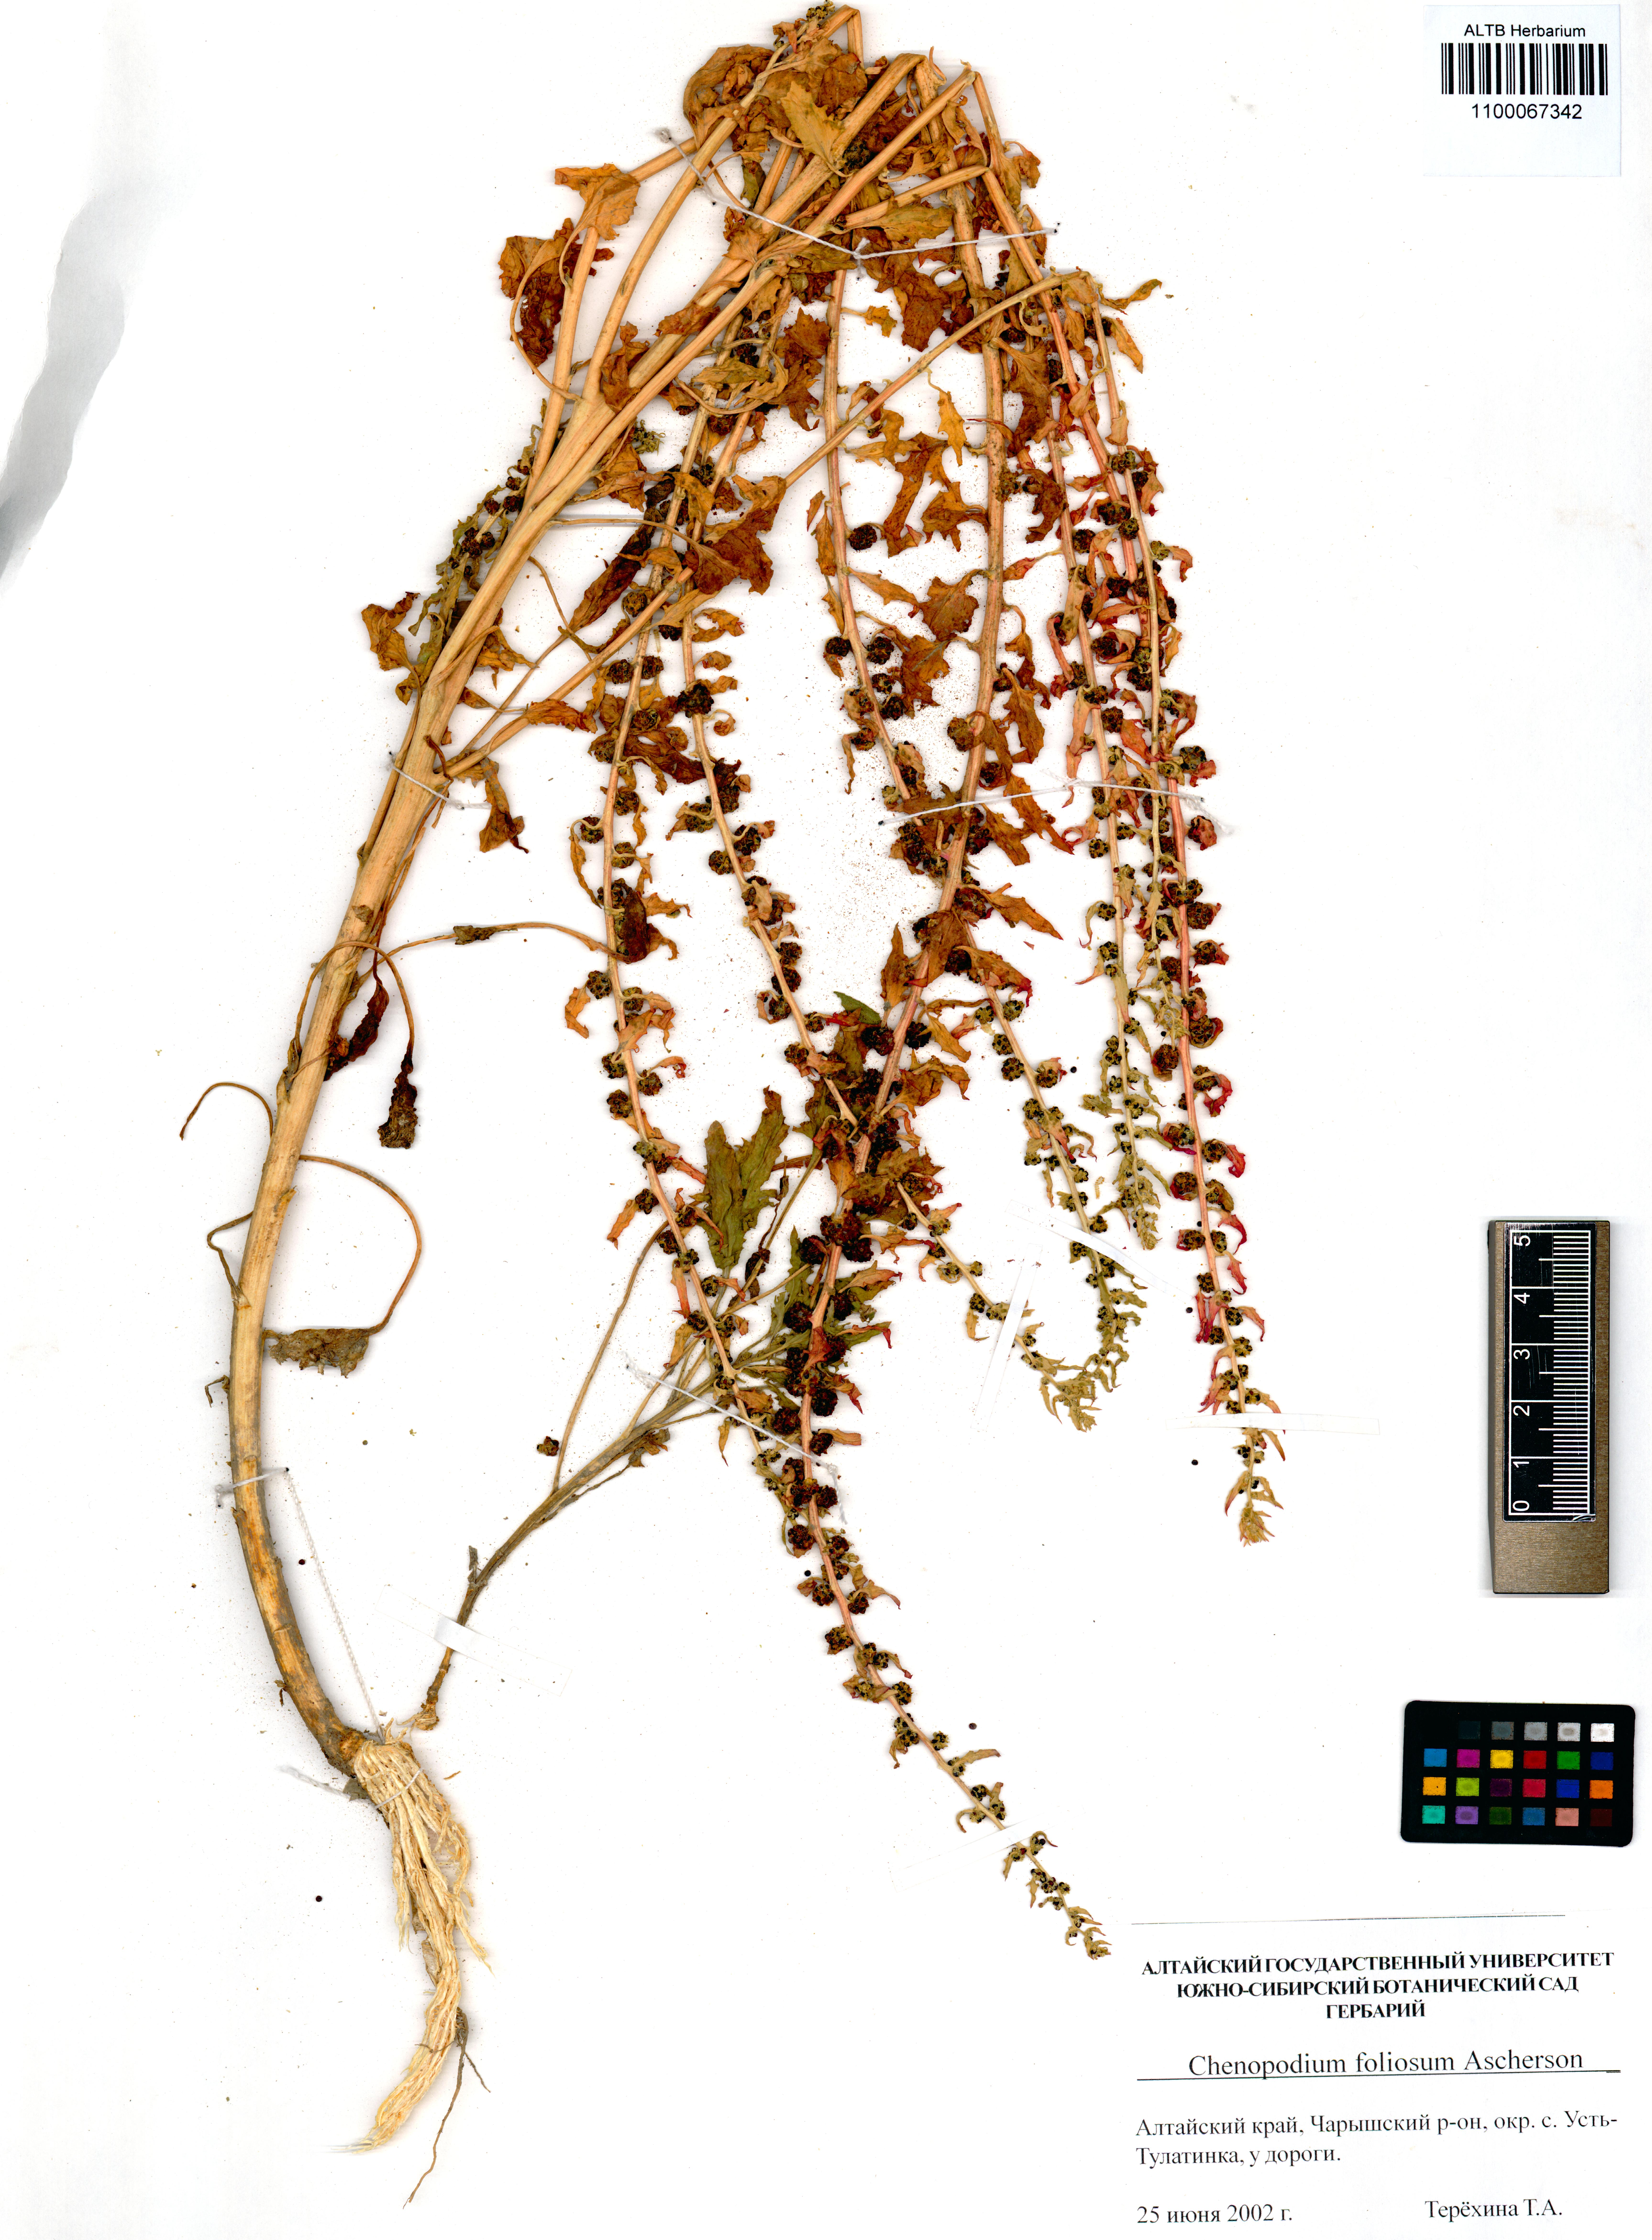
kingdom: Plantae
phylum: Tracheophyta
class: Magnoliopsida
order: Caryophyllales
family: Amaranthaceae
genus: Blitum
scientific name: Blitum virgatum
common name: Strawberry goosefoot
